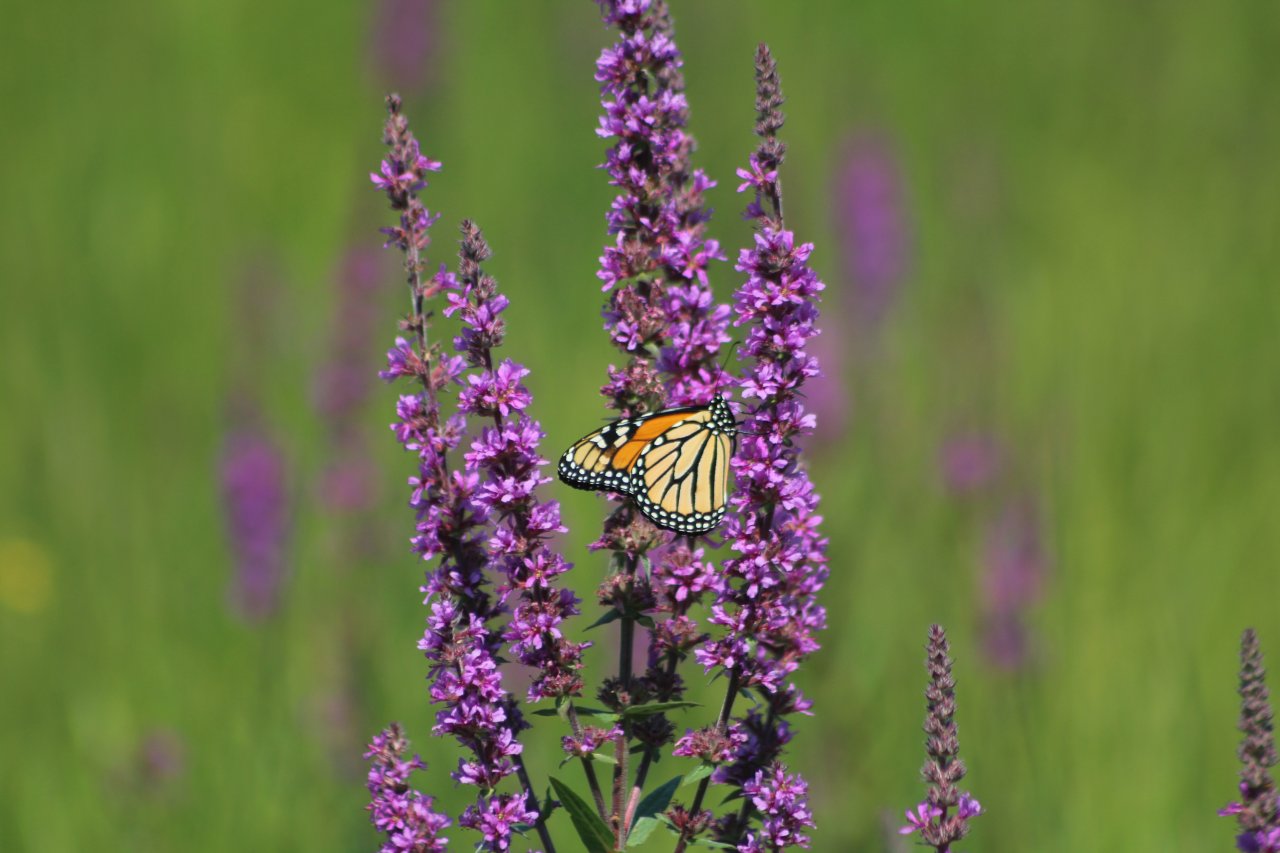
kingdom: Animalia
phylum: Arthropoda
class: Insecta
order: Lepidoptera
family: Nymphalidae
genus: Danaus
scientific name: Danaus plexippus
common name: Monarch
